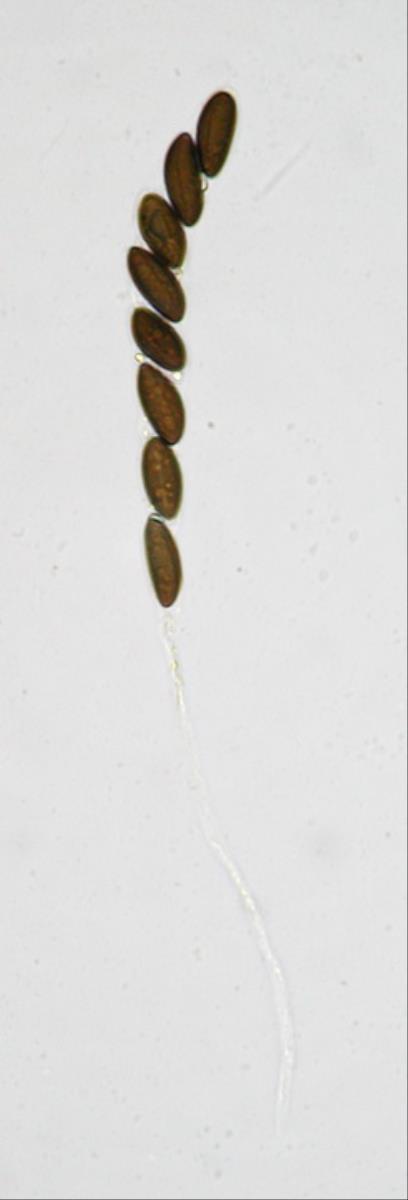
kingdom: Fungi
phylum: Ascomycota
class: Sordariomycetes
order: Xylariales
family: Hypoxylaceae
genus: Daldinia
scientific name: Daldinia dennisii
